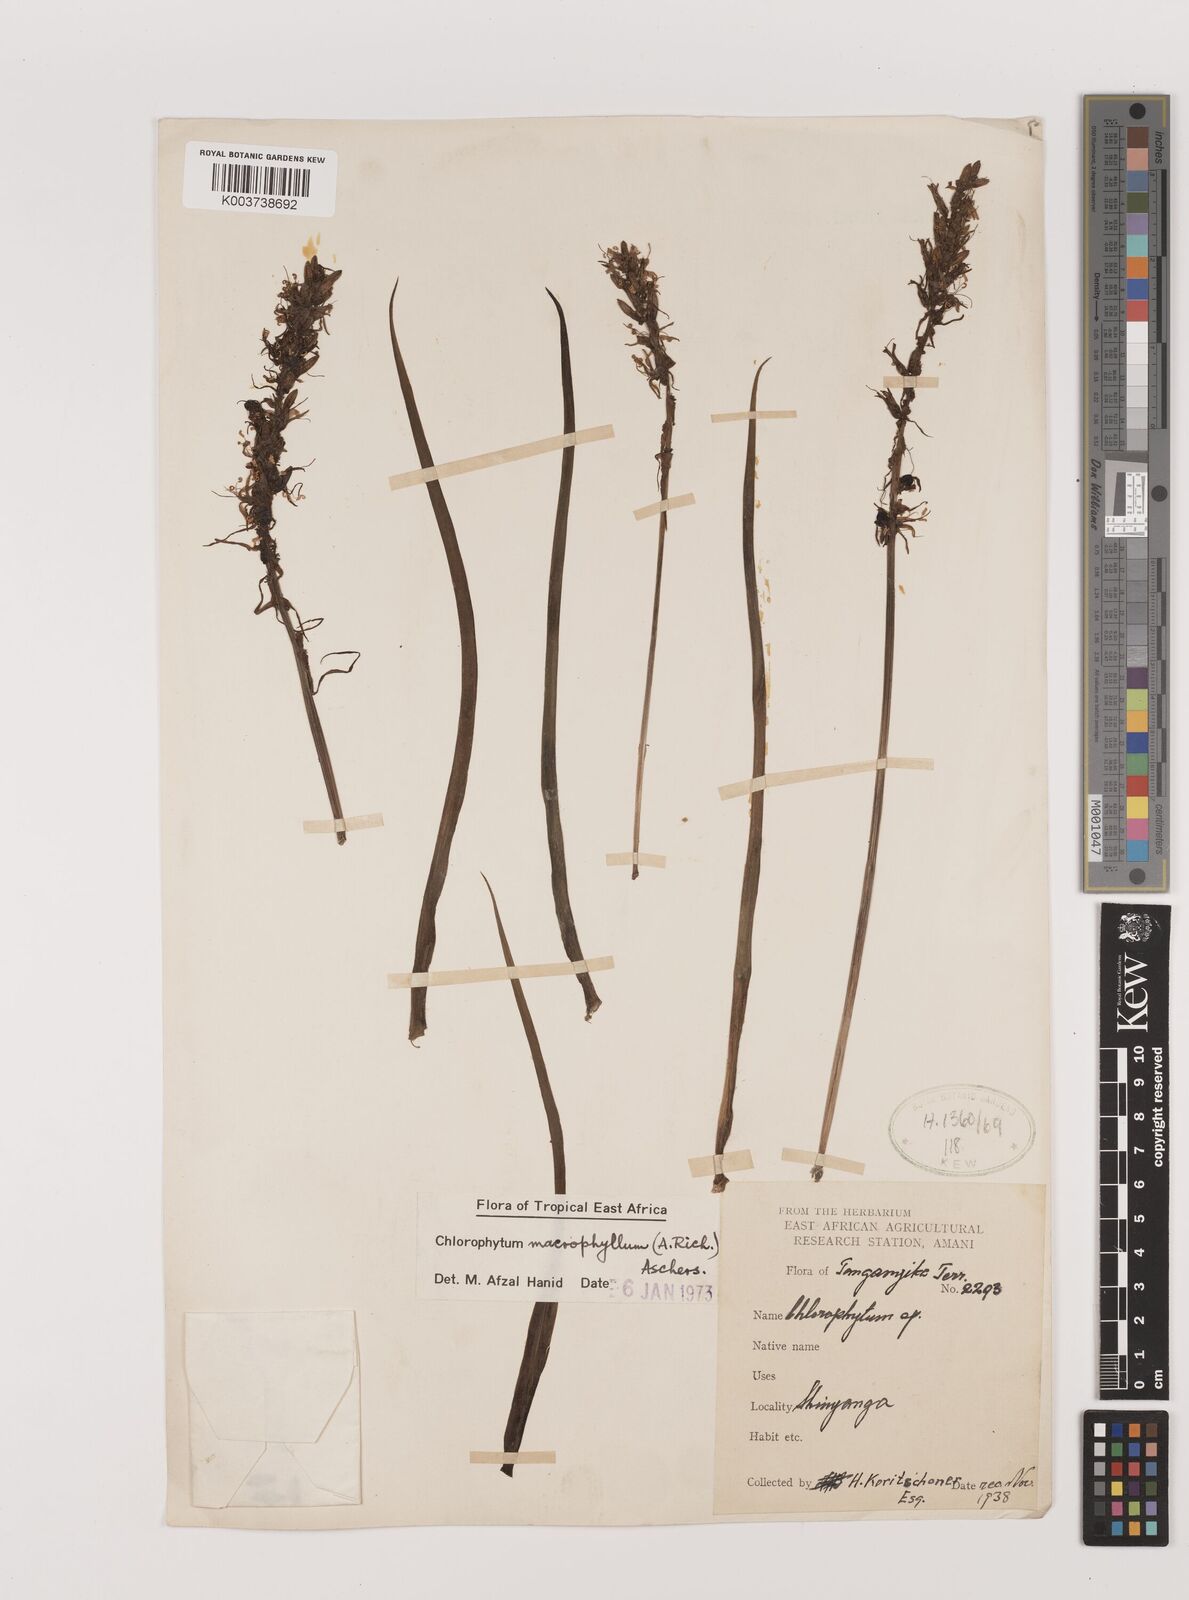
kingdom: Plantae
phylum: Tracheophyta
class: Liliopsida
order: Asparagales
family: Asparagaceae
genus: Chlorophytum
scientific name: Chlorophytum macrophyllum
